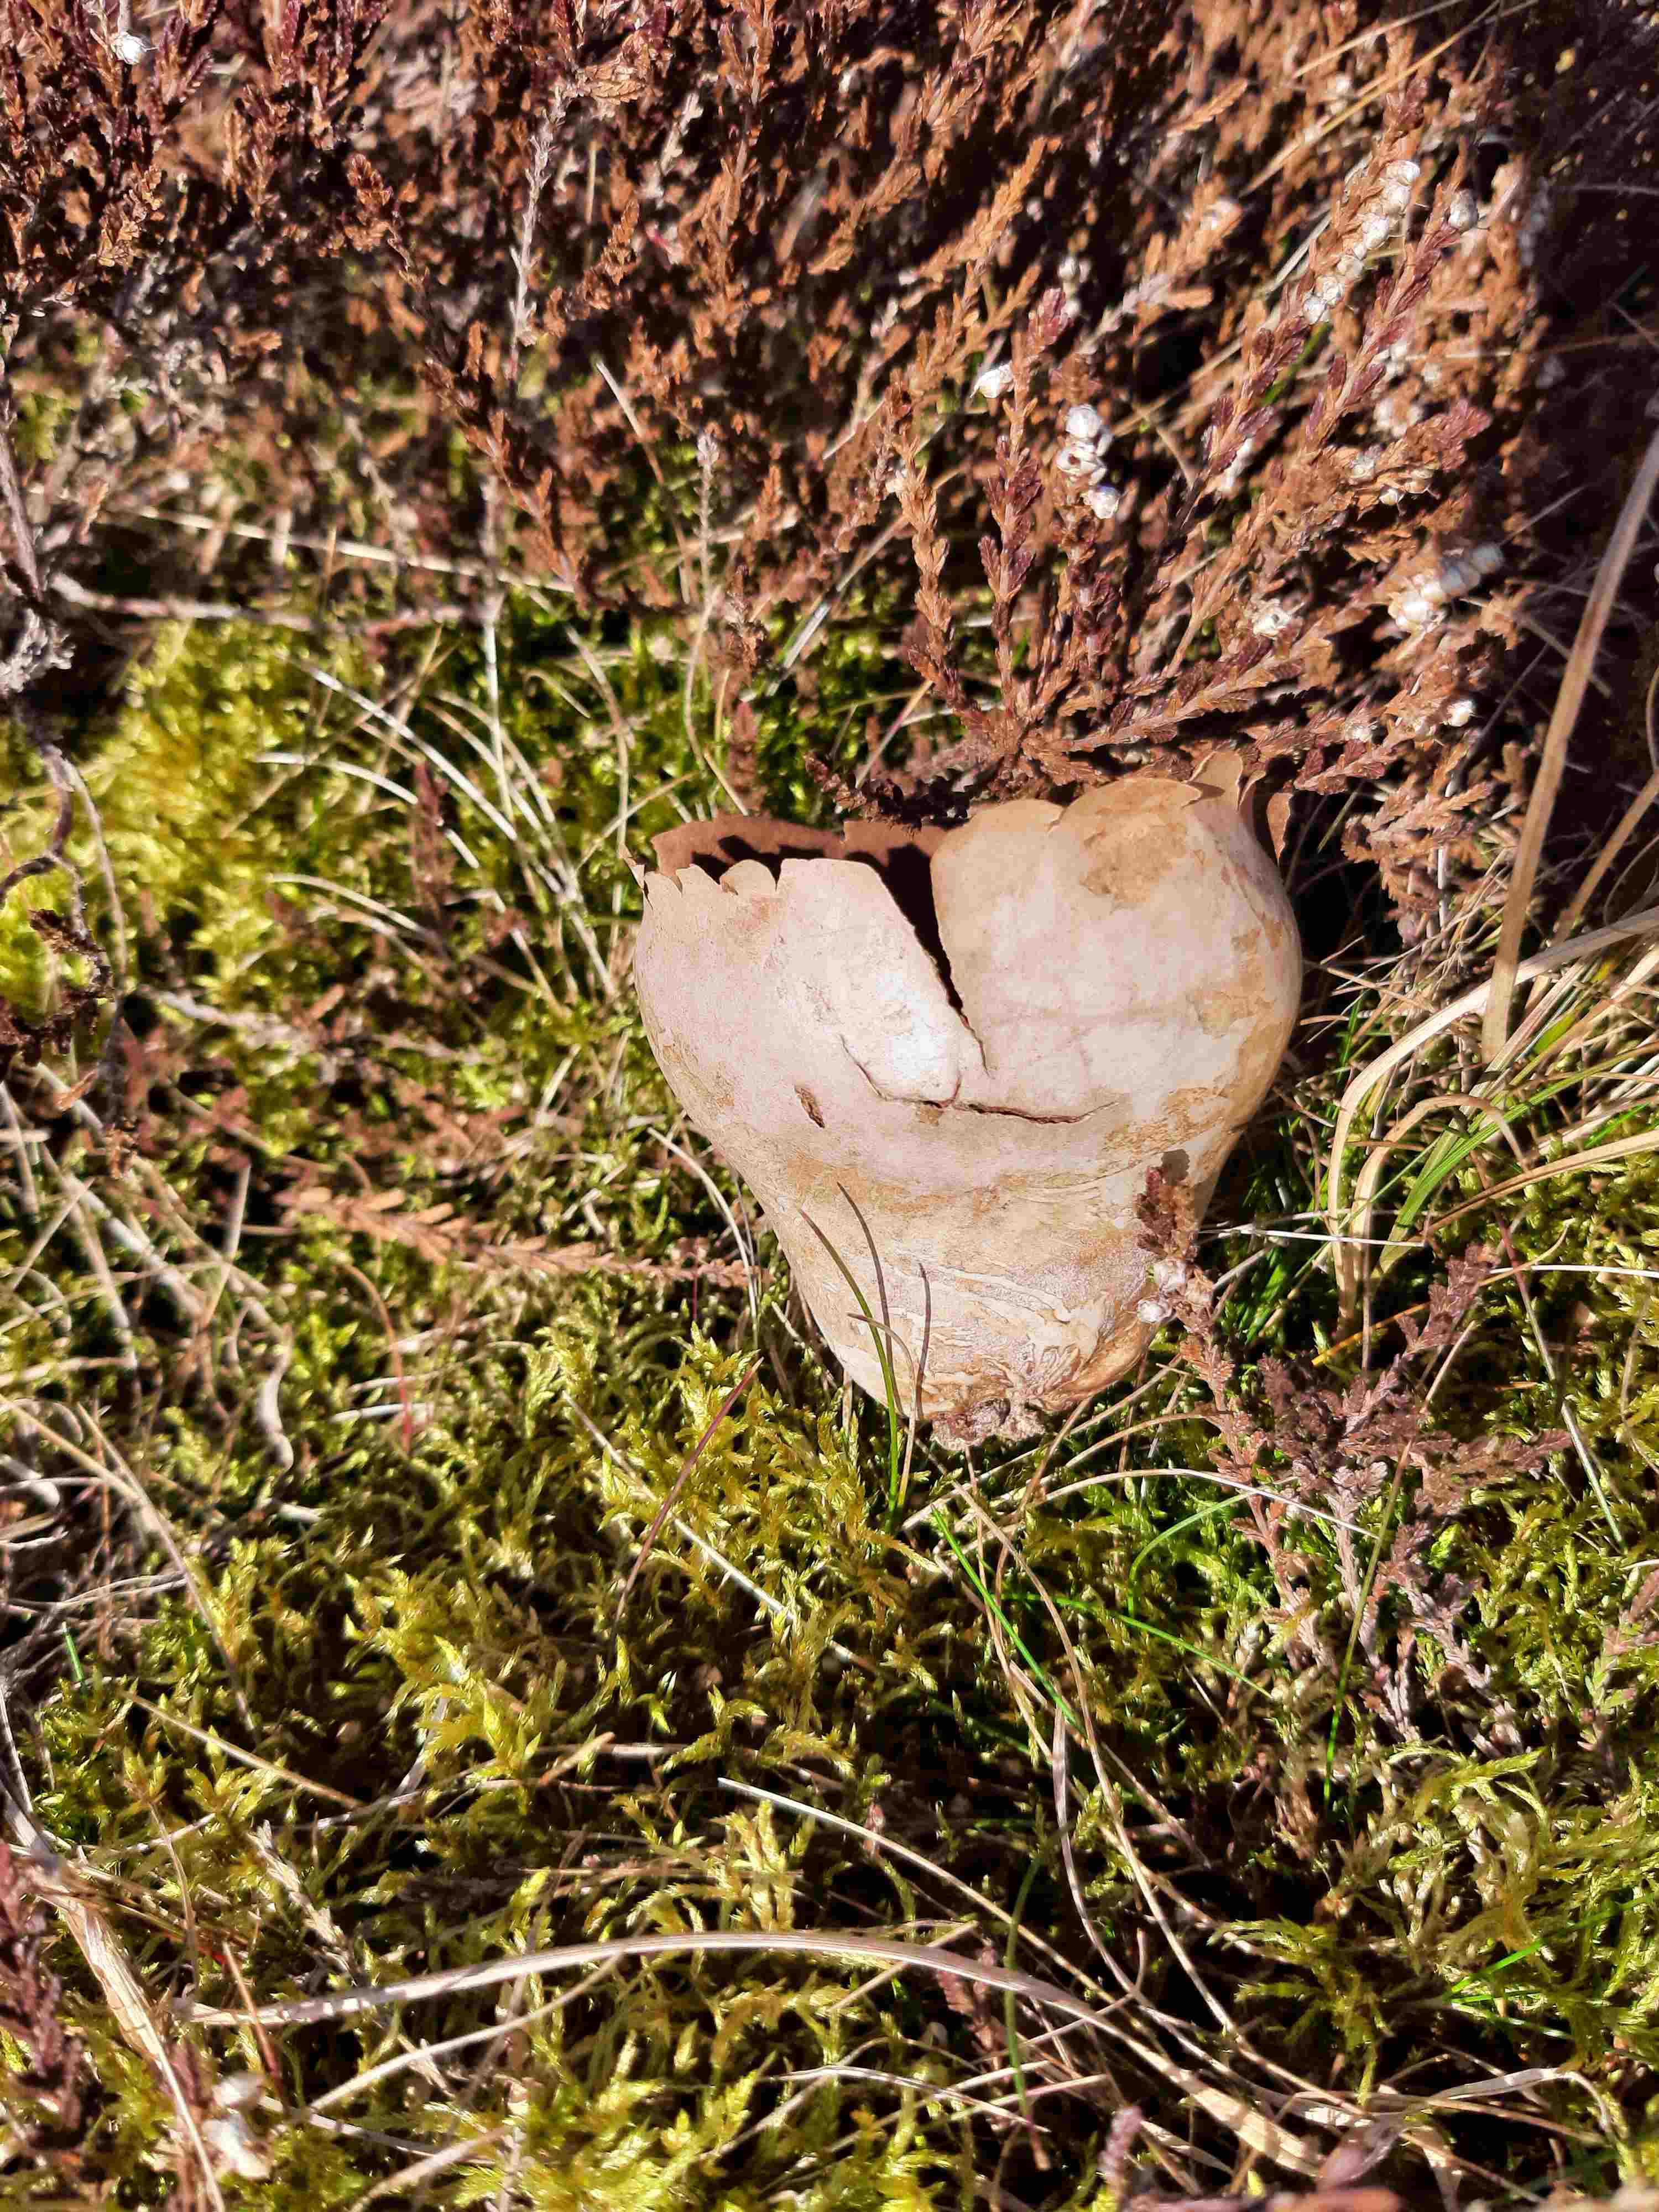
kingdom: Fungi
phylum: Basidiomycota
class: Agaricomycetes
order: Agaricales
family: Lycoperdaceae
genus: Bovistella
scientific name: Bovistella utriformis
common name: skællet støvbold
